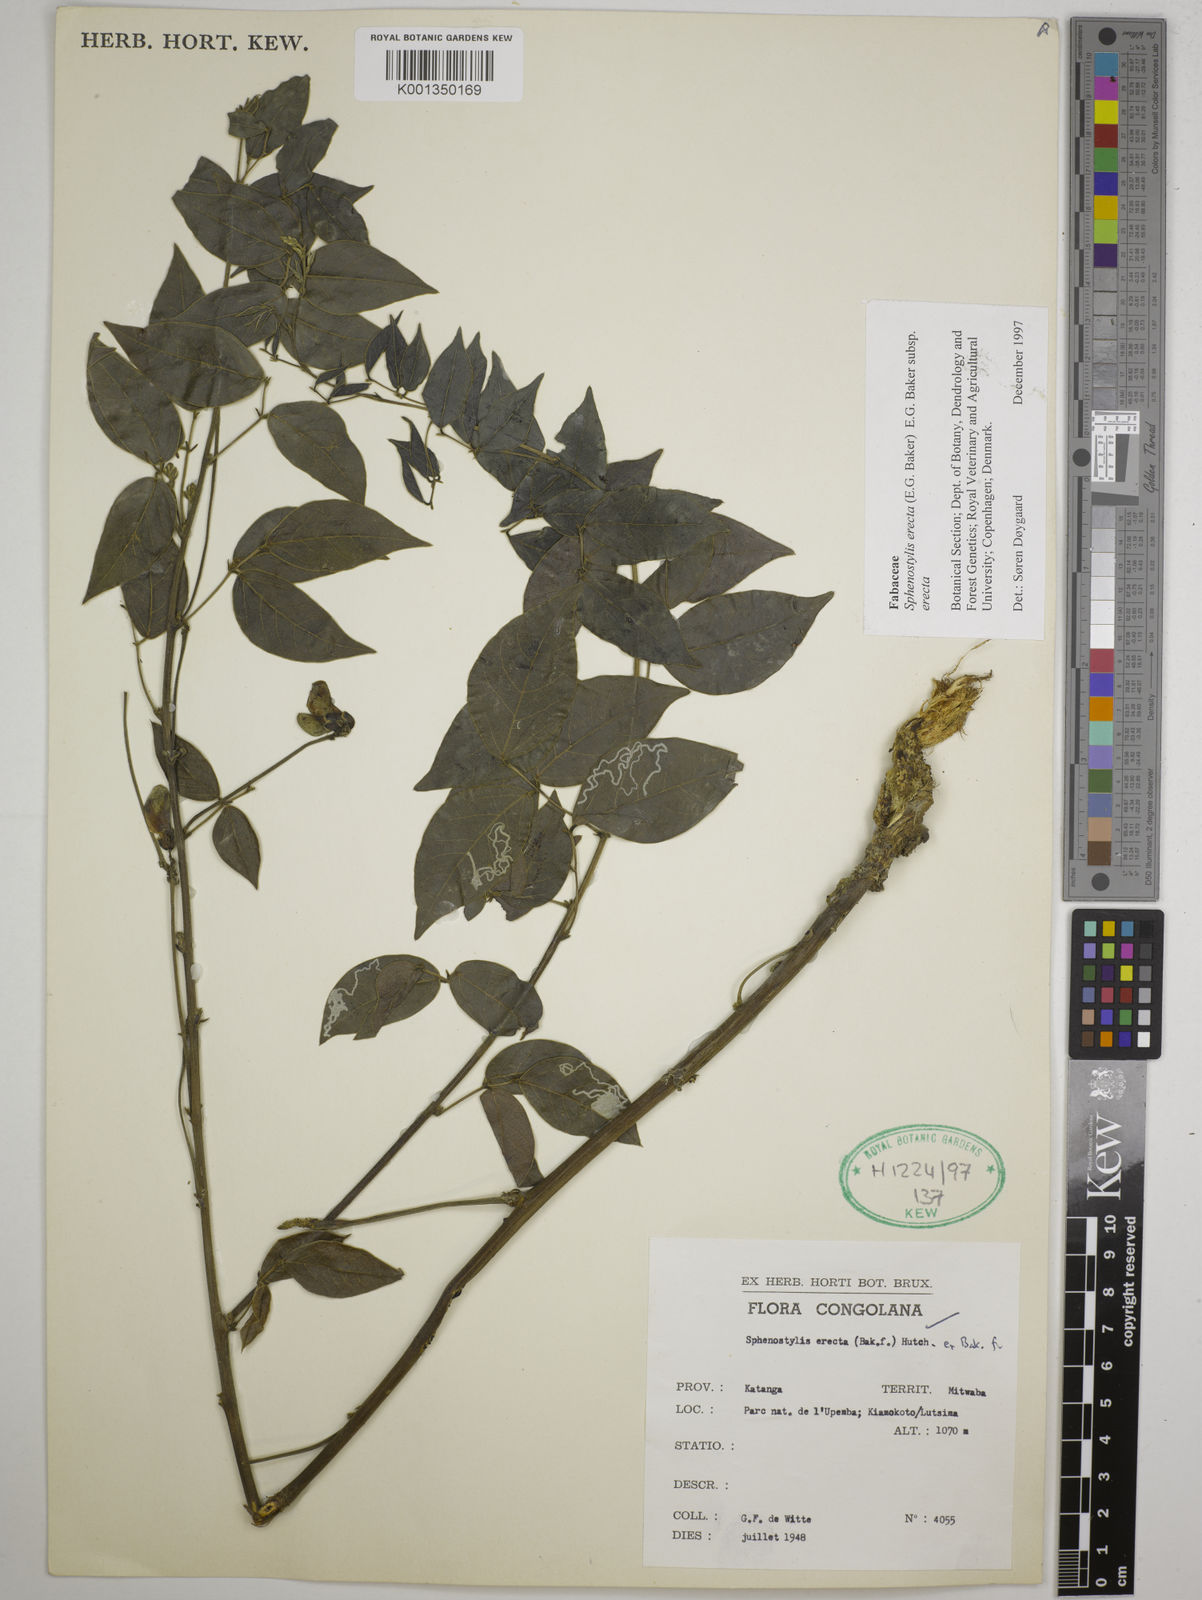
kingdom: Plantae
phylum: Tracheophyta
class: Magnoliopsida
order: Fabales
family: Fabaceae
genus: Sphenostylis
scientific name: Sphenostylis erecta
